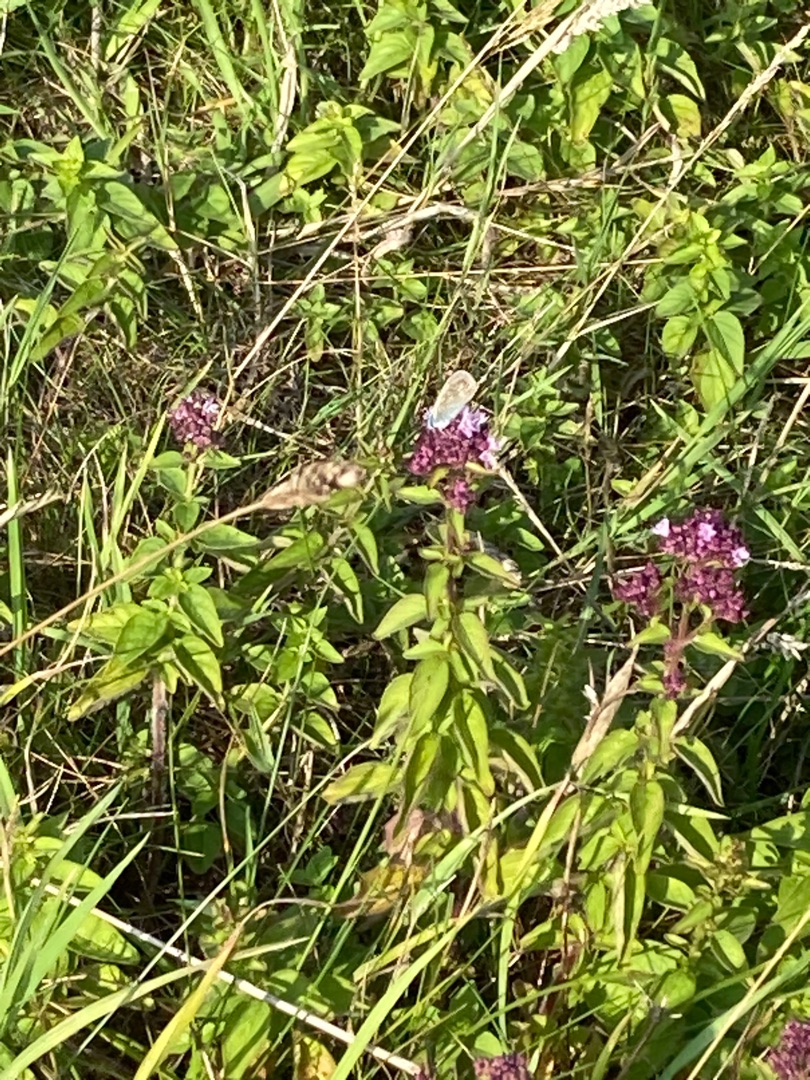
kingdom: Plantae
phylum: Tracheophyta
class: Magnoliopsida
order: Lamiales
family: Lamiaceae
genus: Origanum
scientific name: Origanum vulgare
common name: Merian
